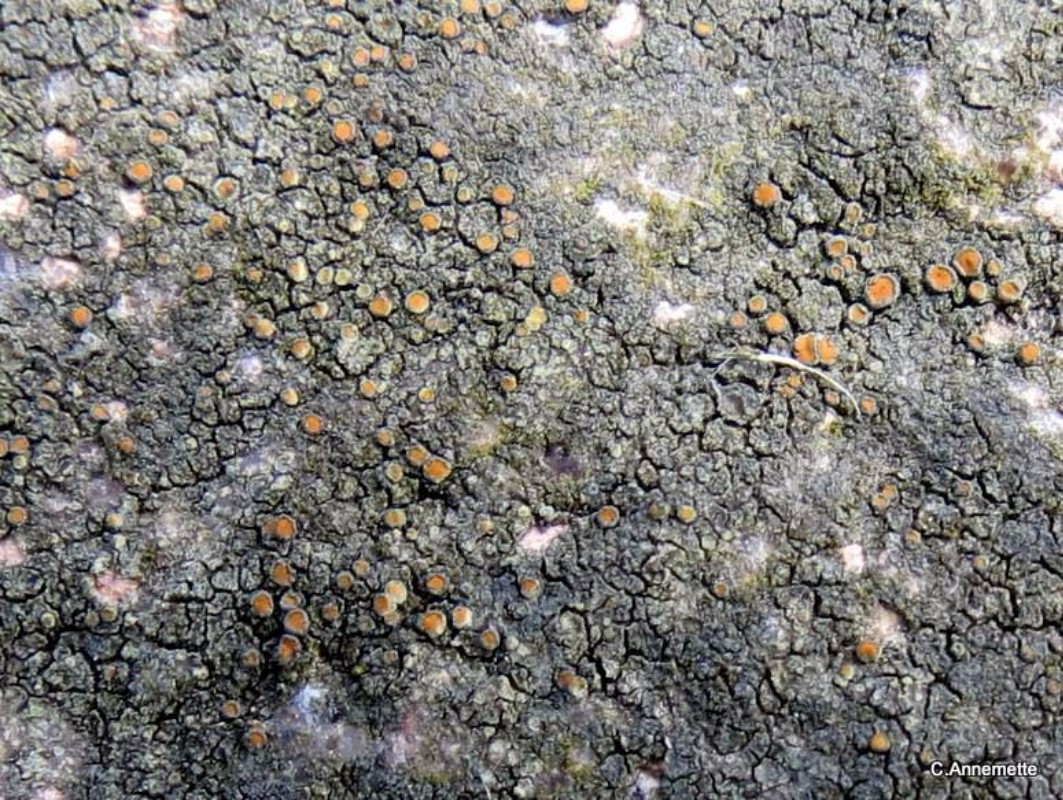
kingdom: Fungi
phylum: Ascomycota
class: Lecanoromycetes
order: Teloschistales
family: Teloschistaceae
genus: Caloplaca
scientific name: Caloplaca chlorina
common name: mørkskællet orangelav
